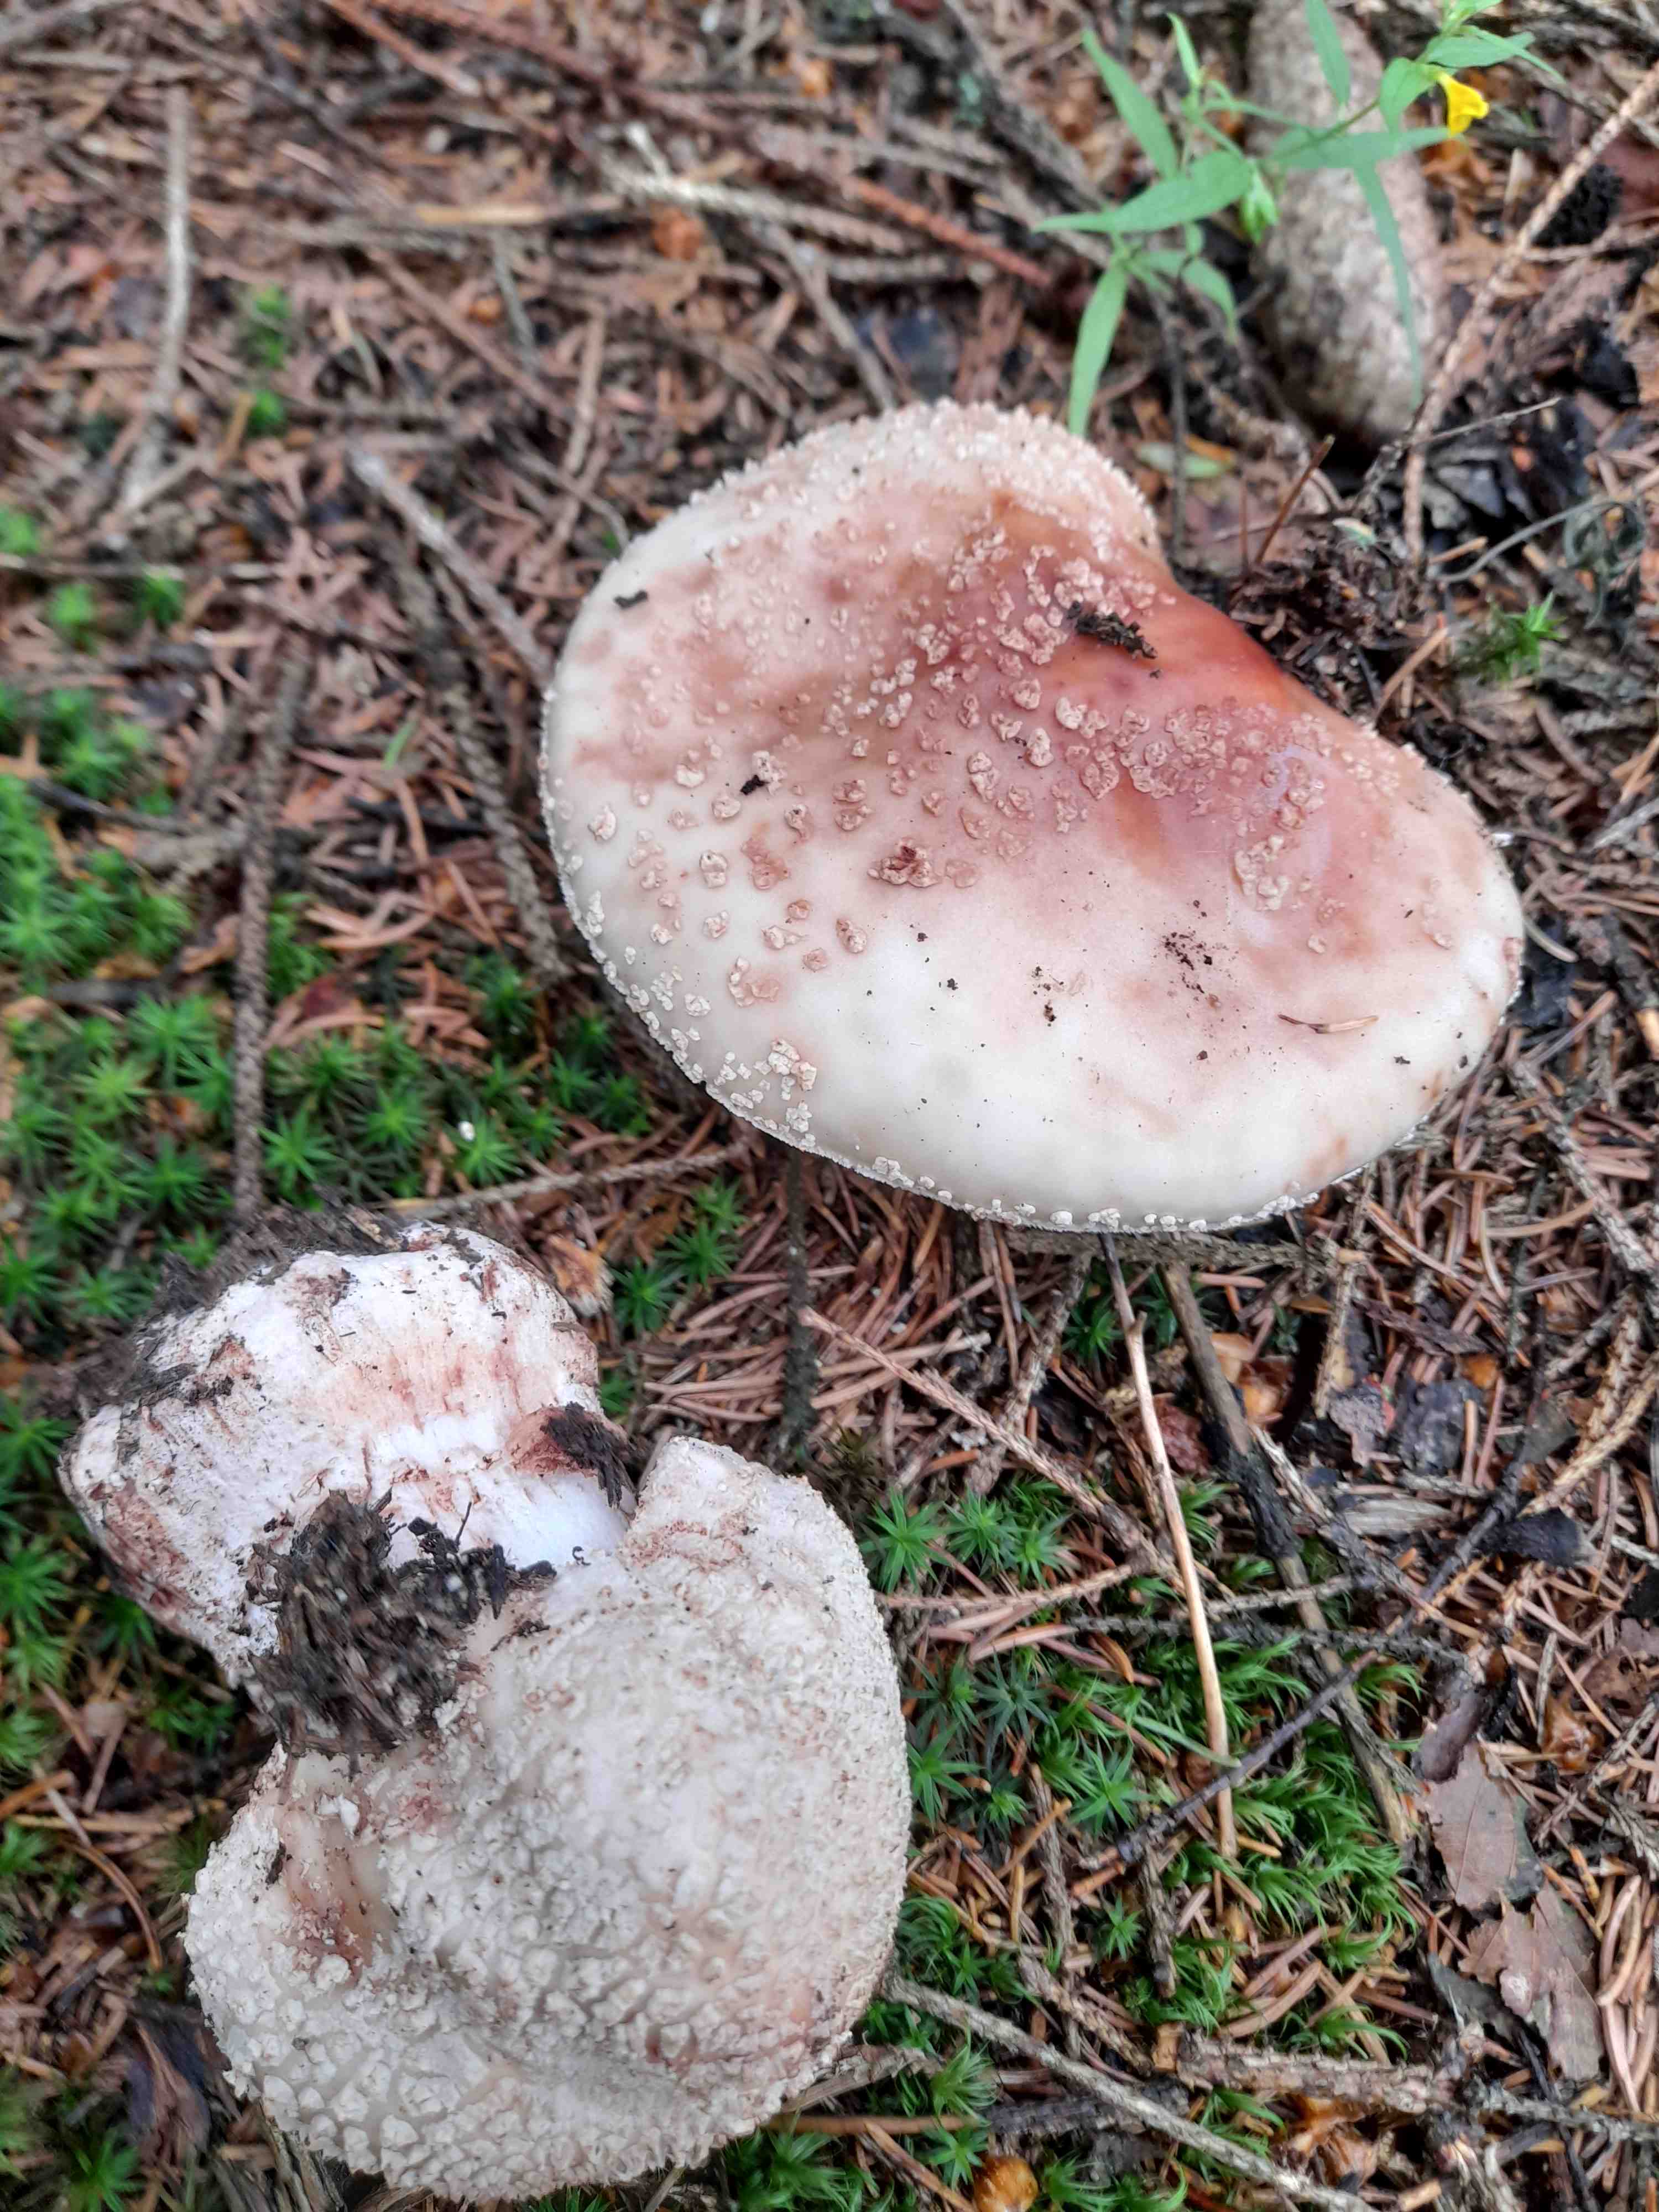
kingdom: Fungi
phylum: Basidiomycota
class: Agaricomycetes
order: Agaricales
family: Amanitaceae
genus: Amanita
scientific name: Amanita rubescens
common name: rødmende fluesvamp
